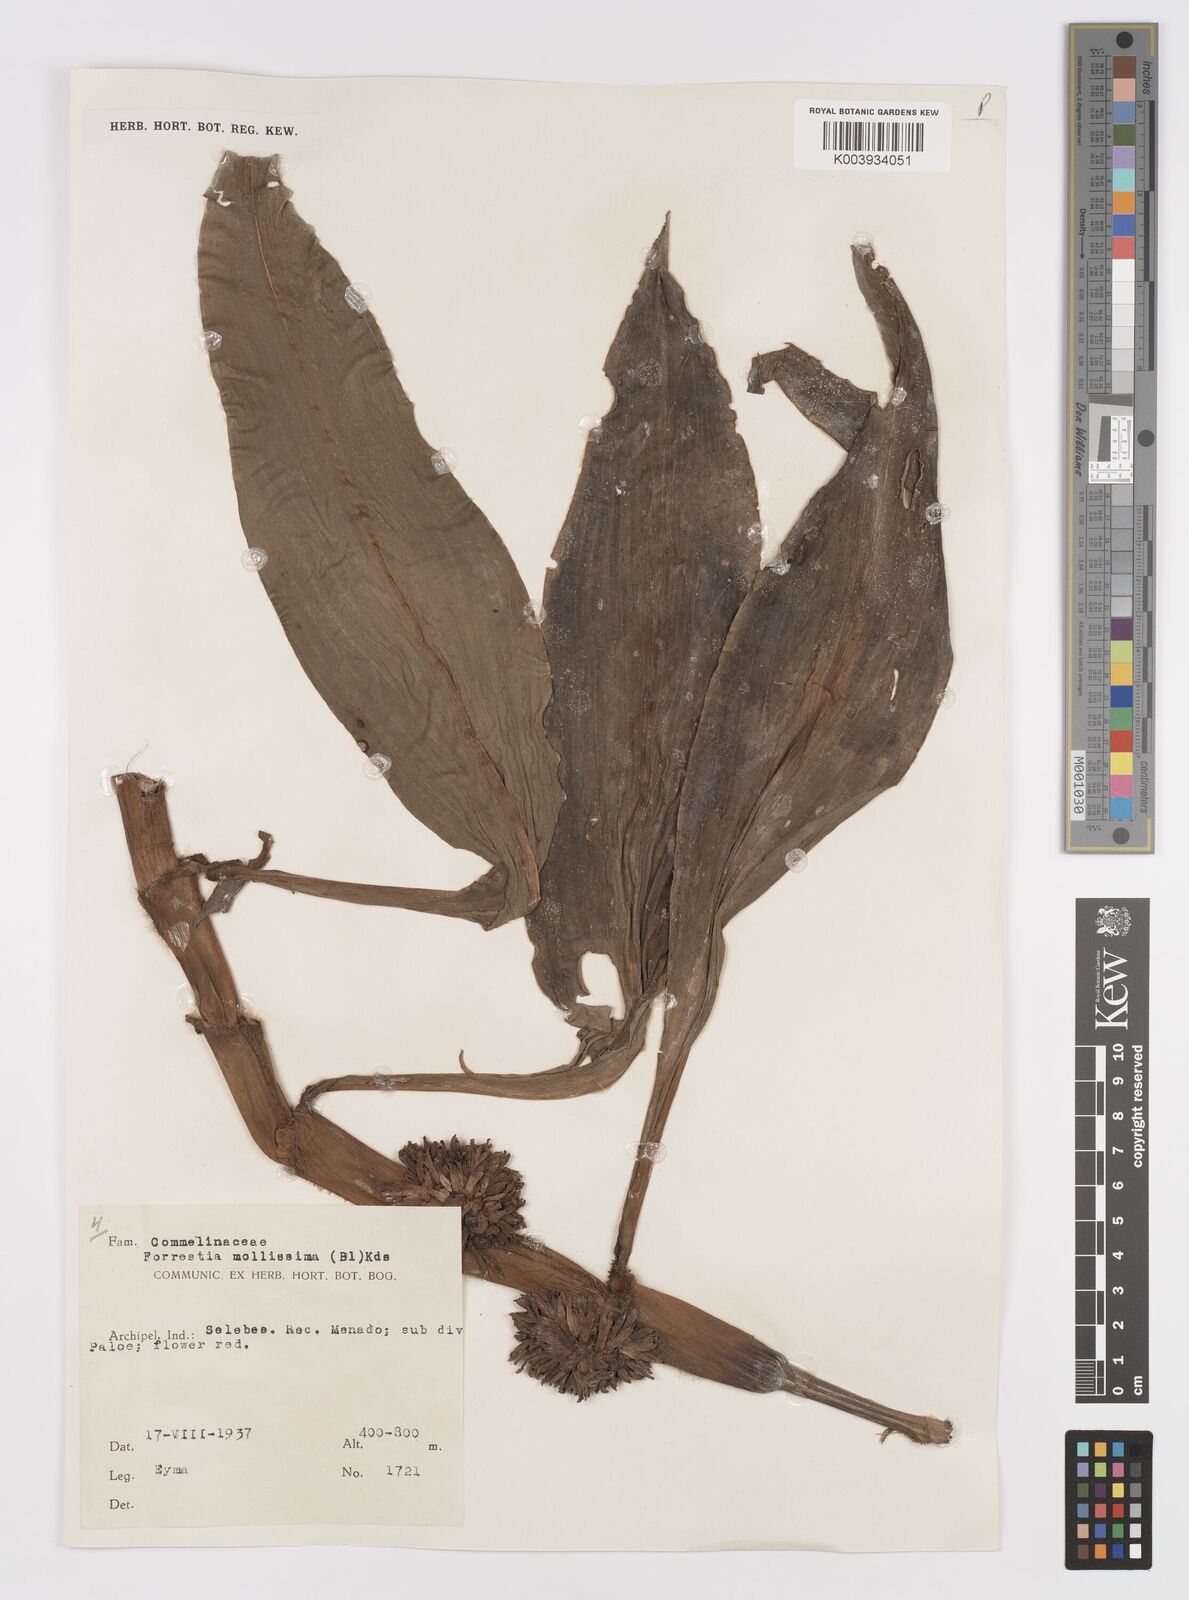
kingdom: Plantae
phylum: Tracheophyta
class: Liliopsida
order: Commelinales
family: Commelinaceae
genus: Amischotolype
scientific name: Amischotolype mollissima
